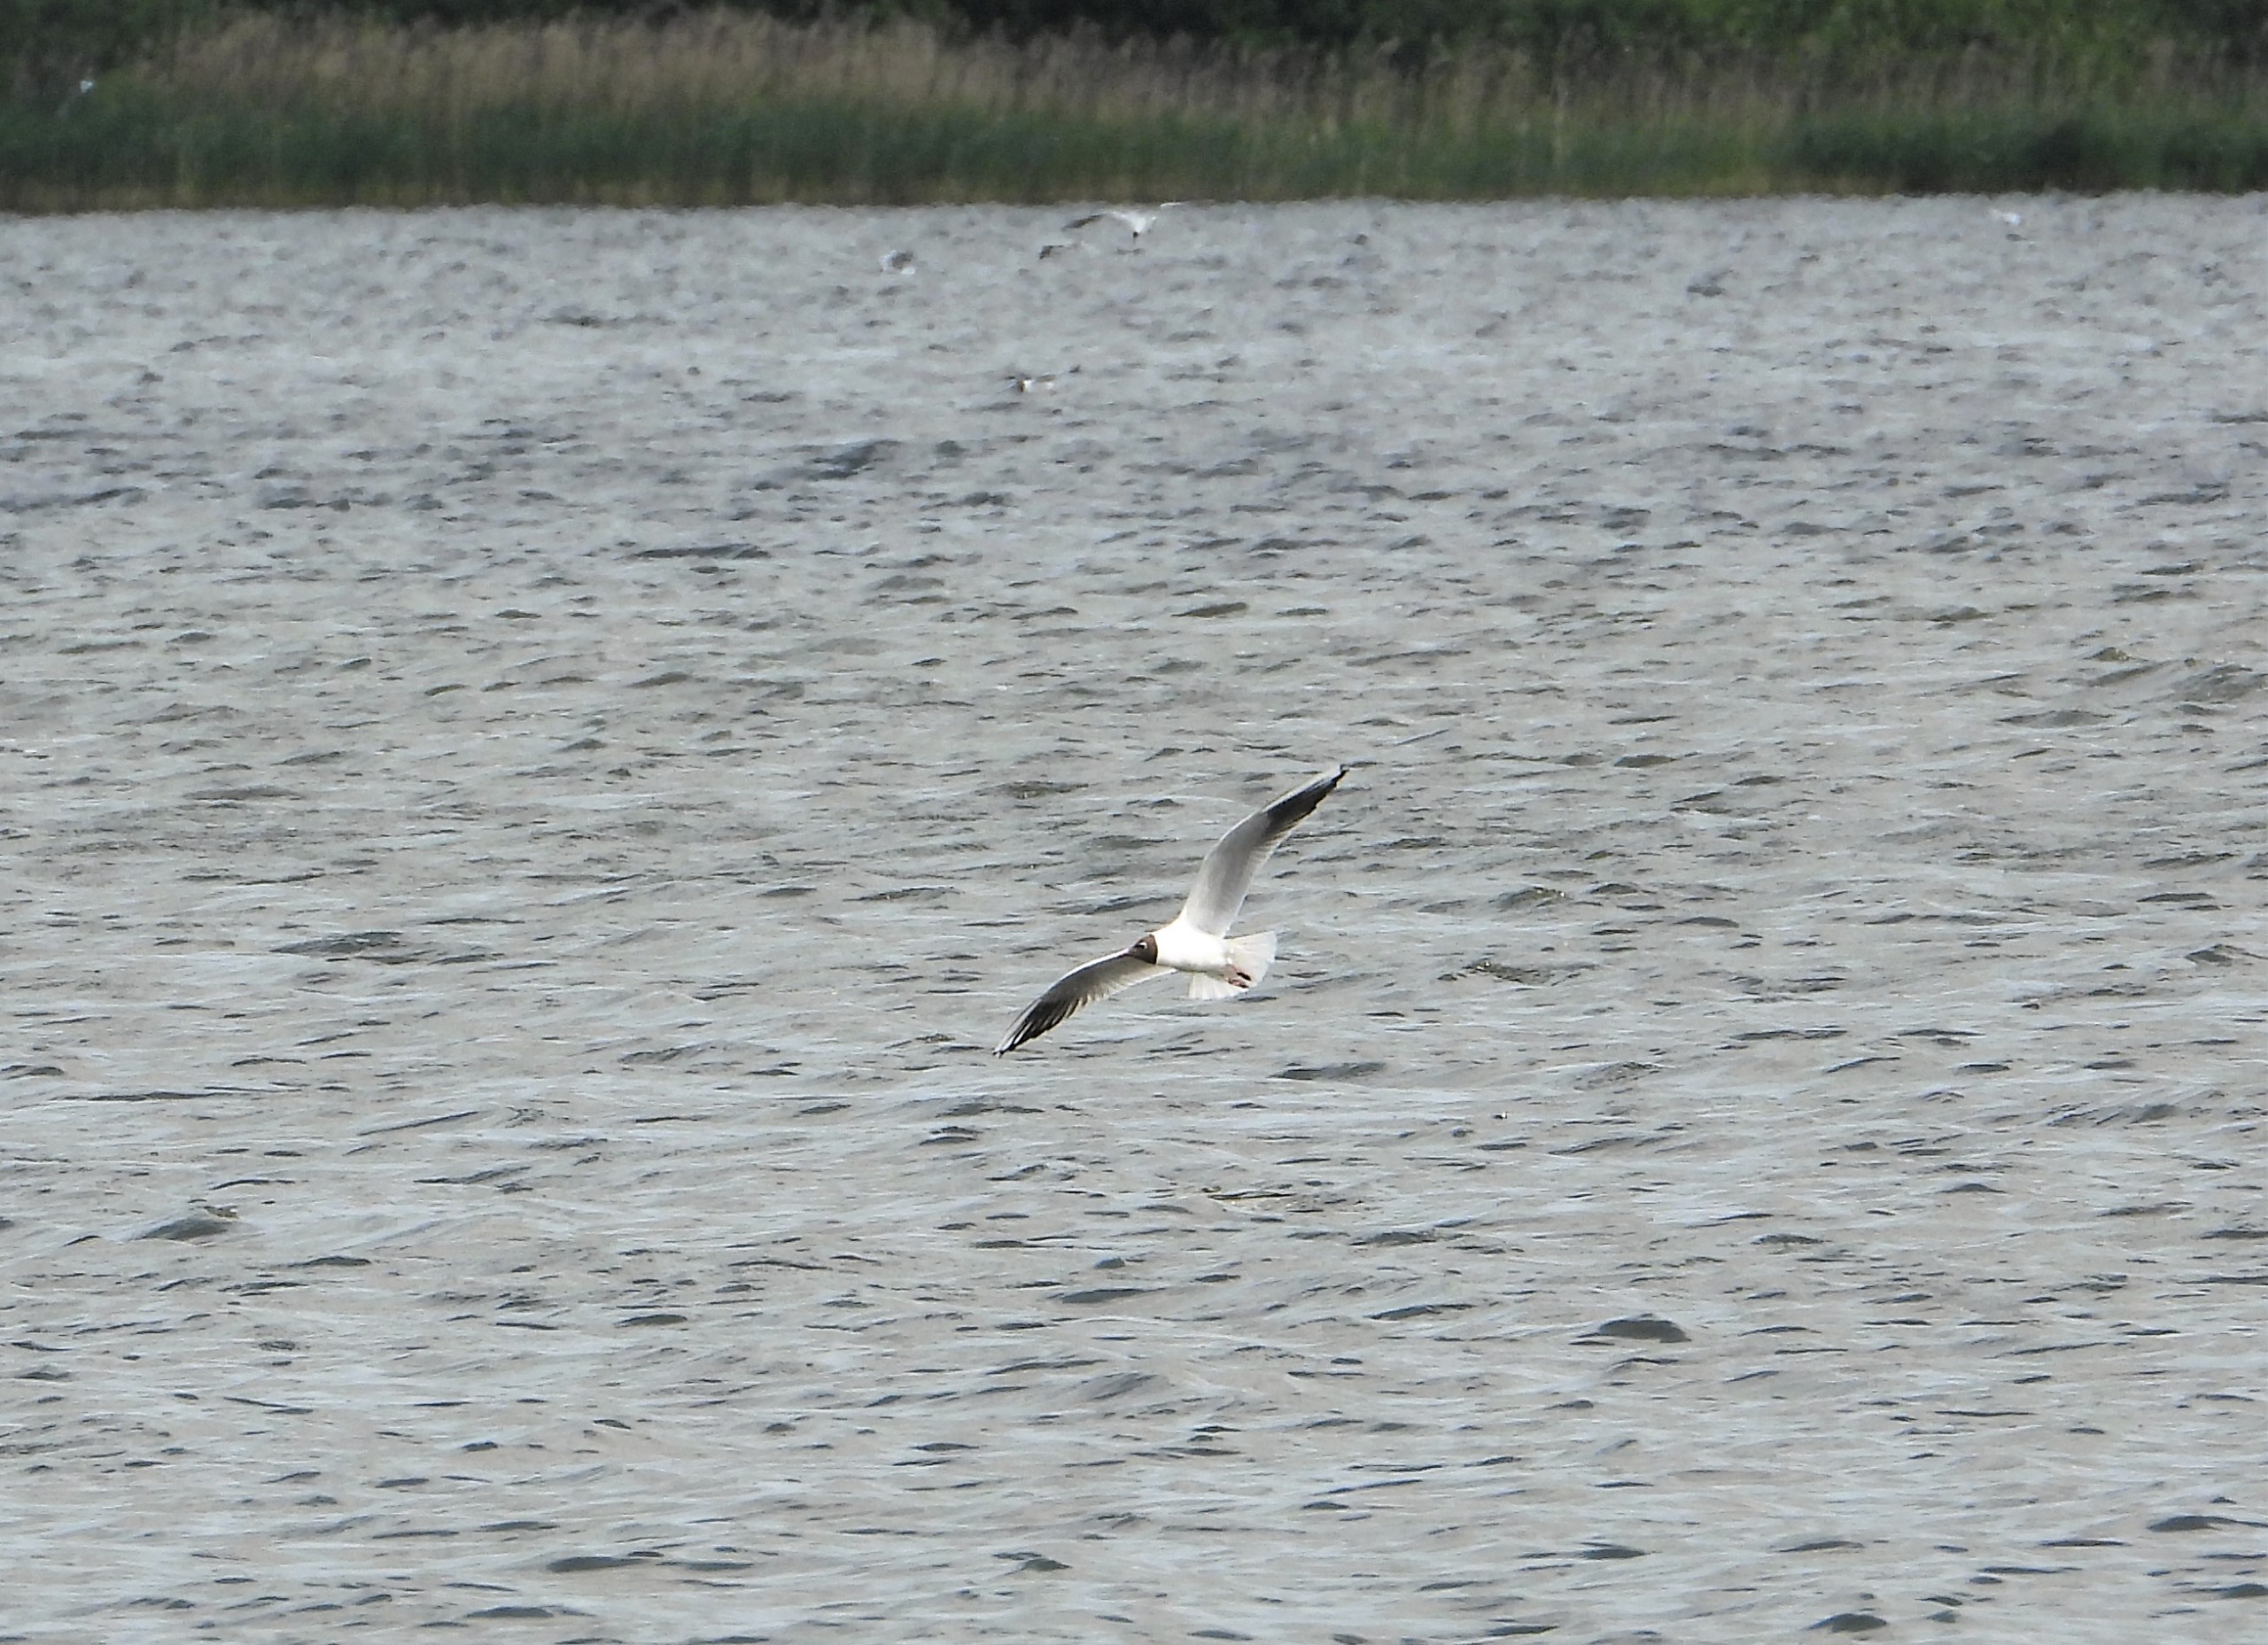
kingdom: Animalia
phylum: Chordata
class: Aves
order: Charadriiformes
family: Laridae
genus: Chroicocephalus
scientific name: Chroicocephalus ridibundus
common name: Hættemåge
